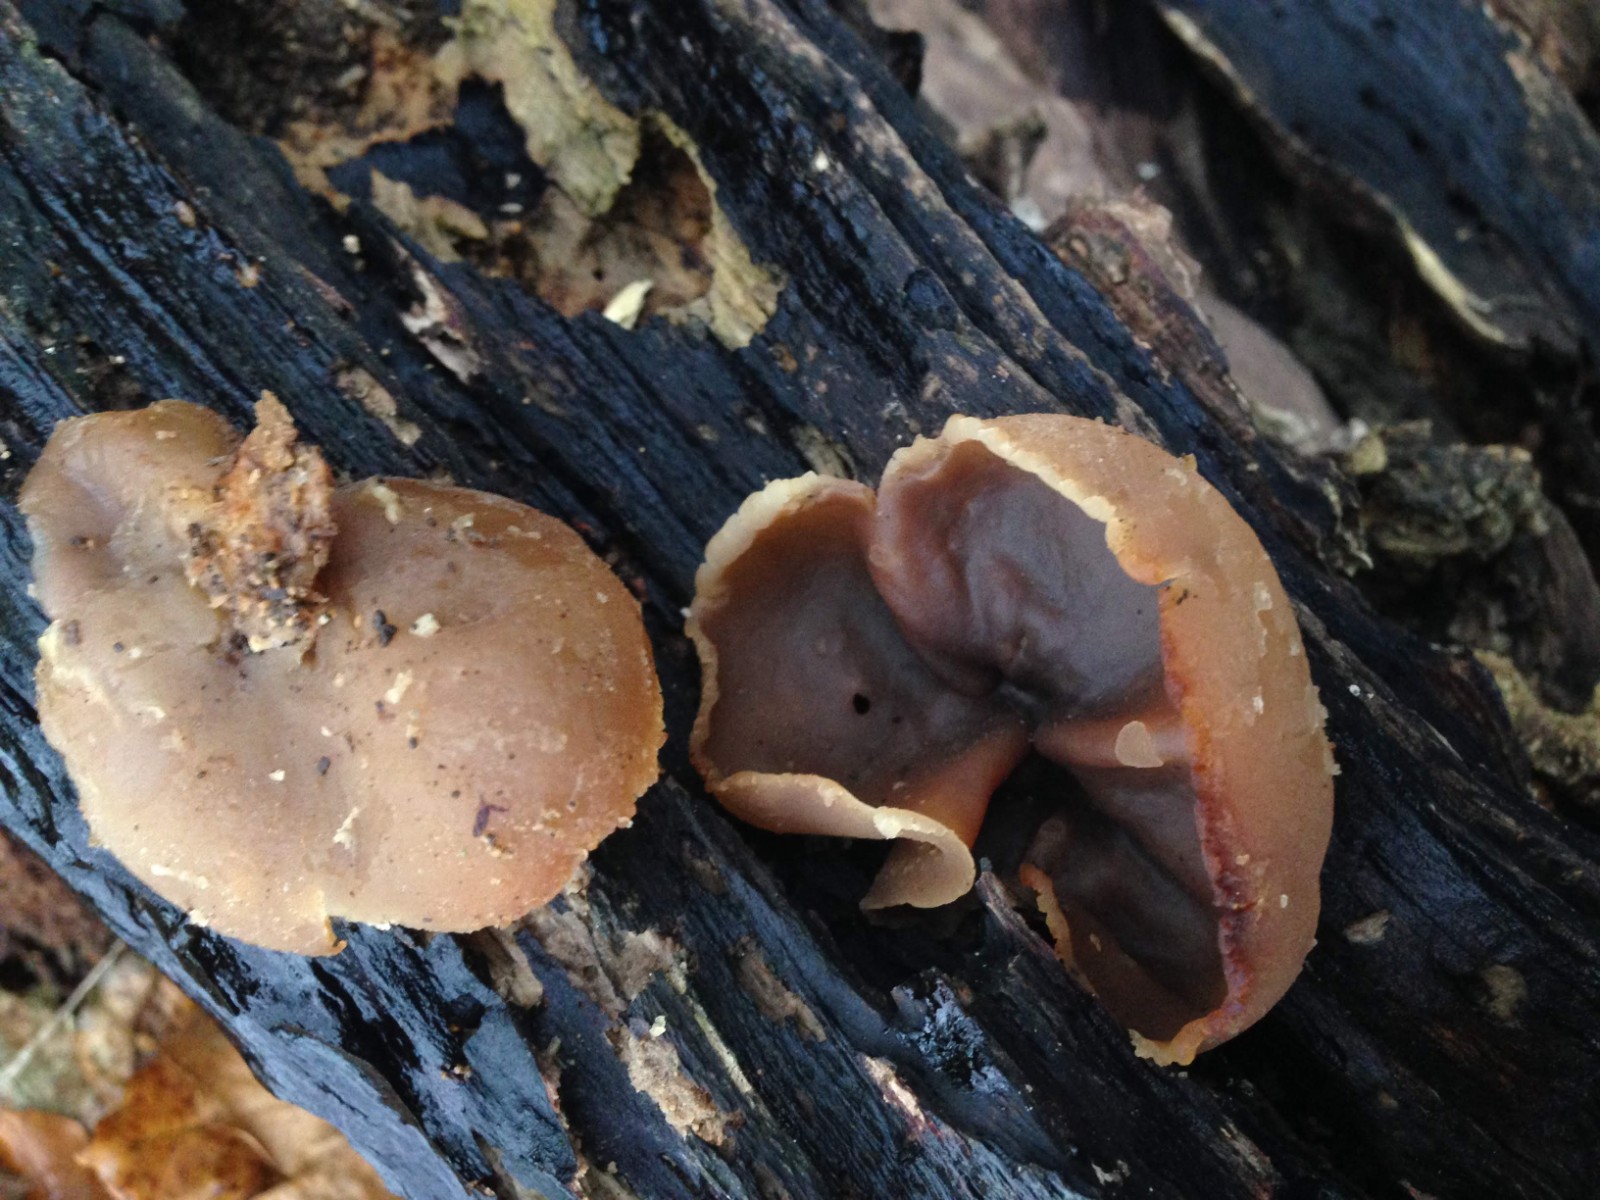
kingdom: Fungi
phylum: Ascomycota
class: Pezizomycetes
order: Pezizales
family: Pezizaceae
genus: Peziza
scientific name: Peziza varia
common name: Ved-bægersvamp
